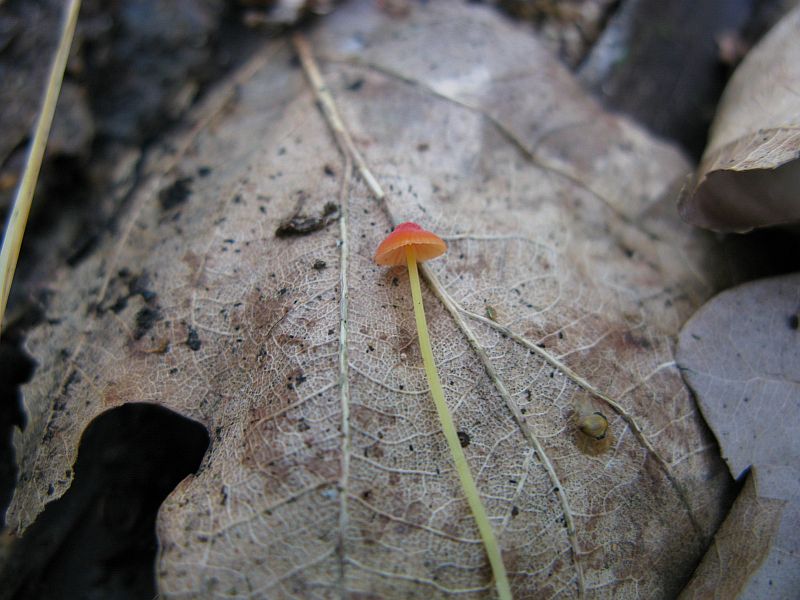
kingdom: Fungi
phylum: Basidiomycota
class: Agaricomycetes
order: Agaricales
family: Mycenaceae
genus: Mycena
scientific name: Mycena acicula
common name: orange huesvamp
